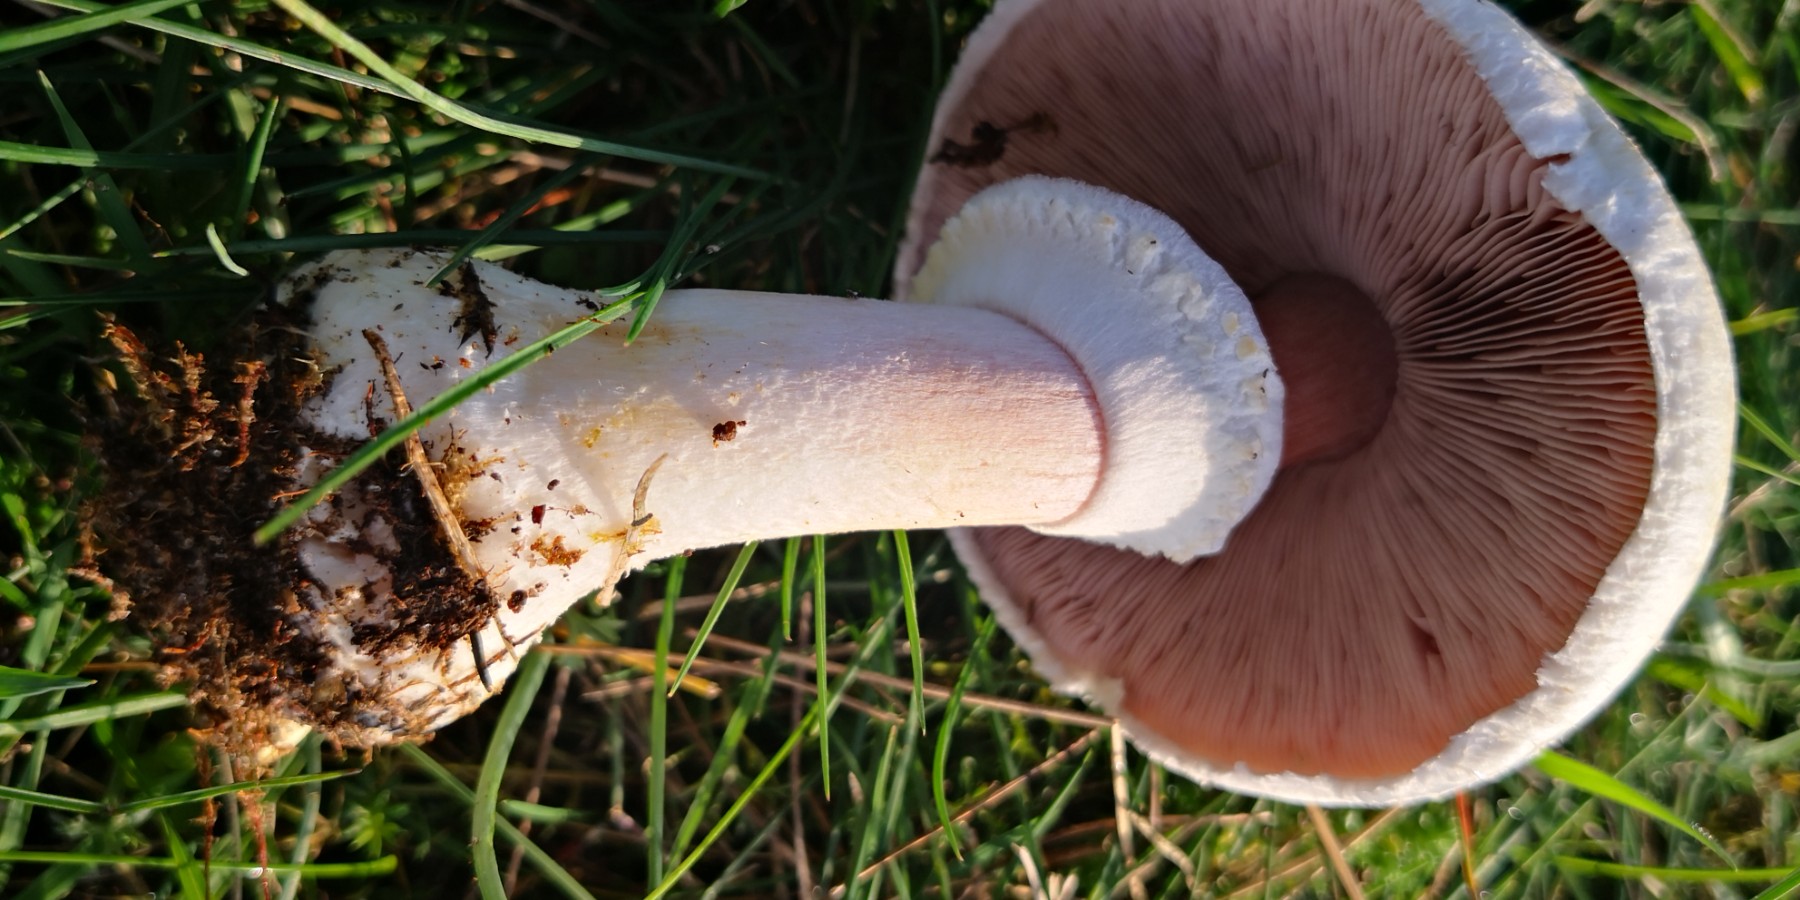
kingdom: Fungi
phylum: Basidiomycota
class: Agaricomycetes
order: Agaricales
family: Agaricaceae
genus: Agaricus
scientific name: Agaricus arvensis
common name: ager-champignon
